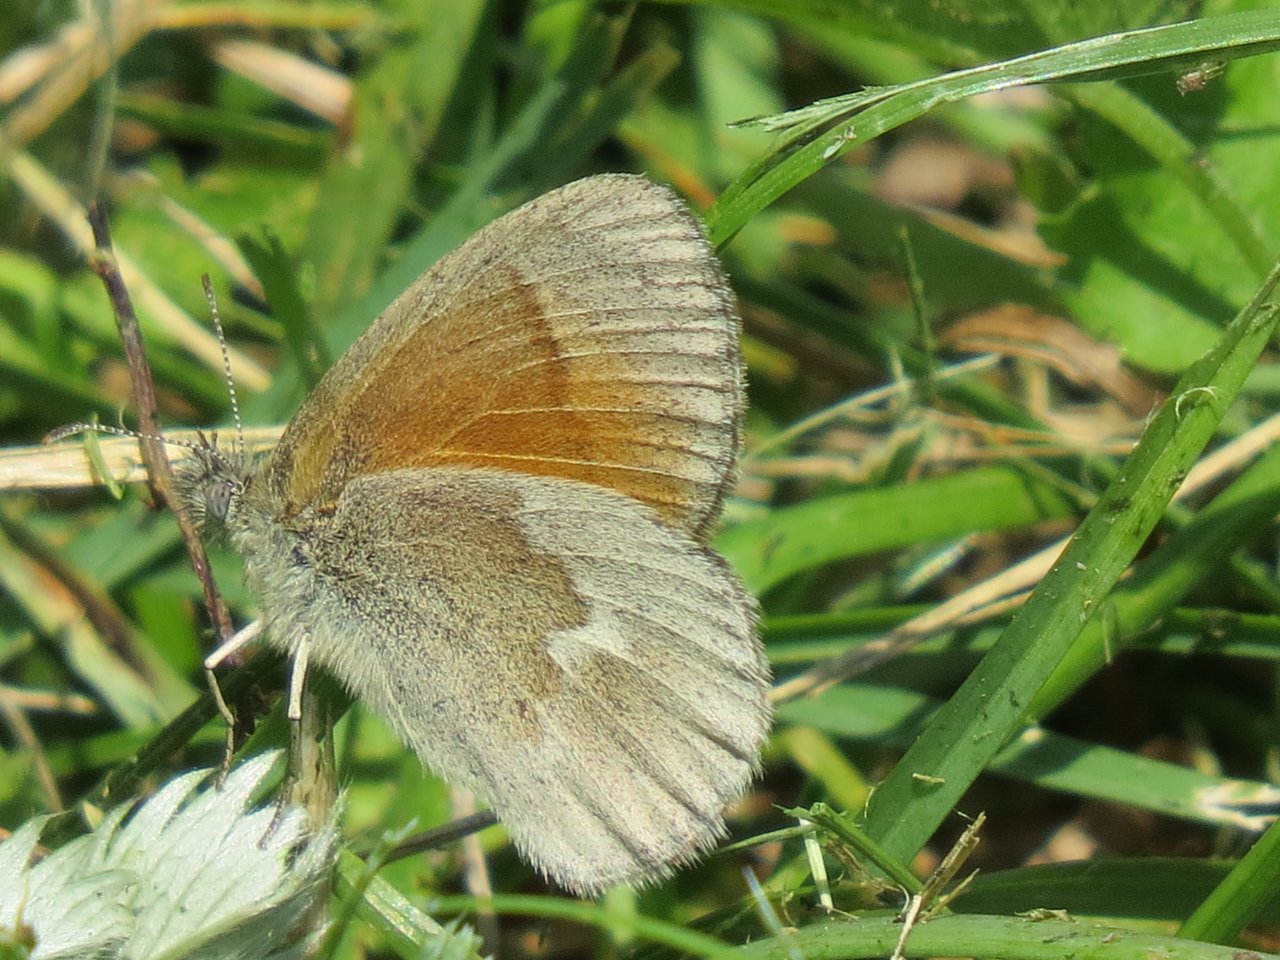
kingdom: Animalia
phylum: Arthropoda
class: Insecta
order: Lepidoptera
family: Nymphalidae
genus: Coenonympha
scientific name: Coenonympha tullia
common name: Large Heath
